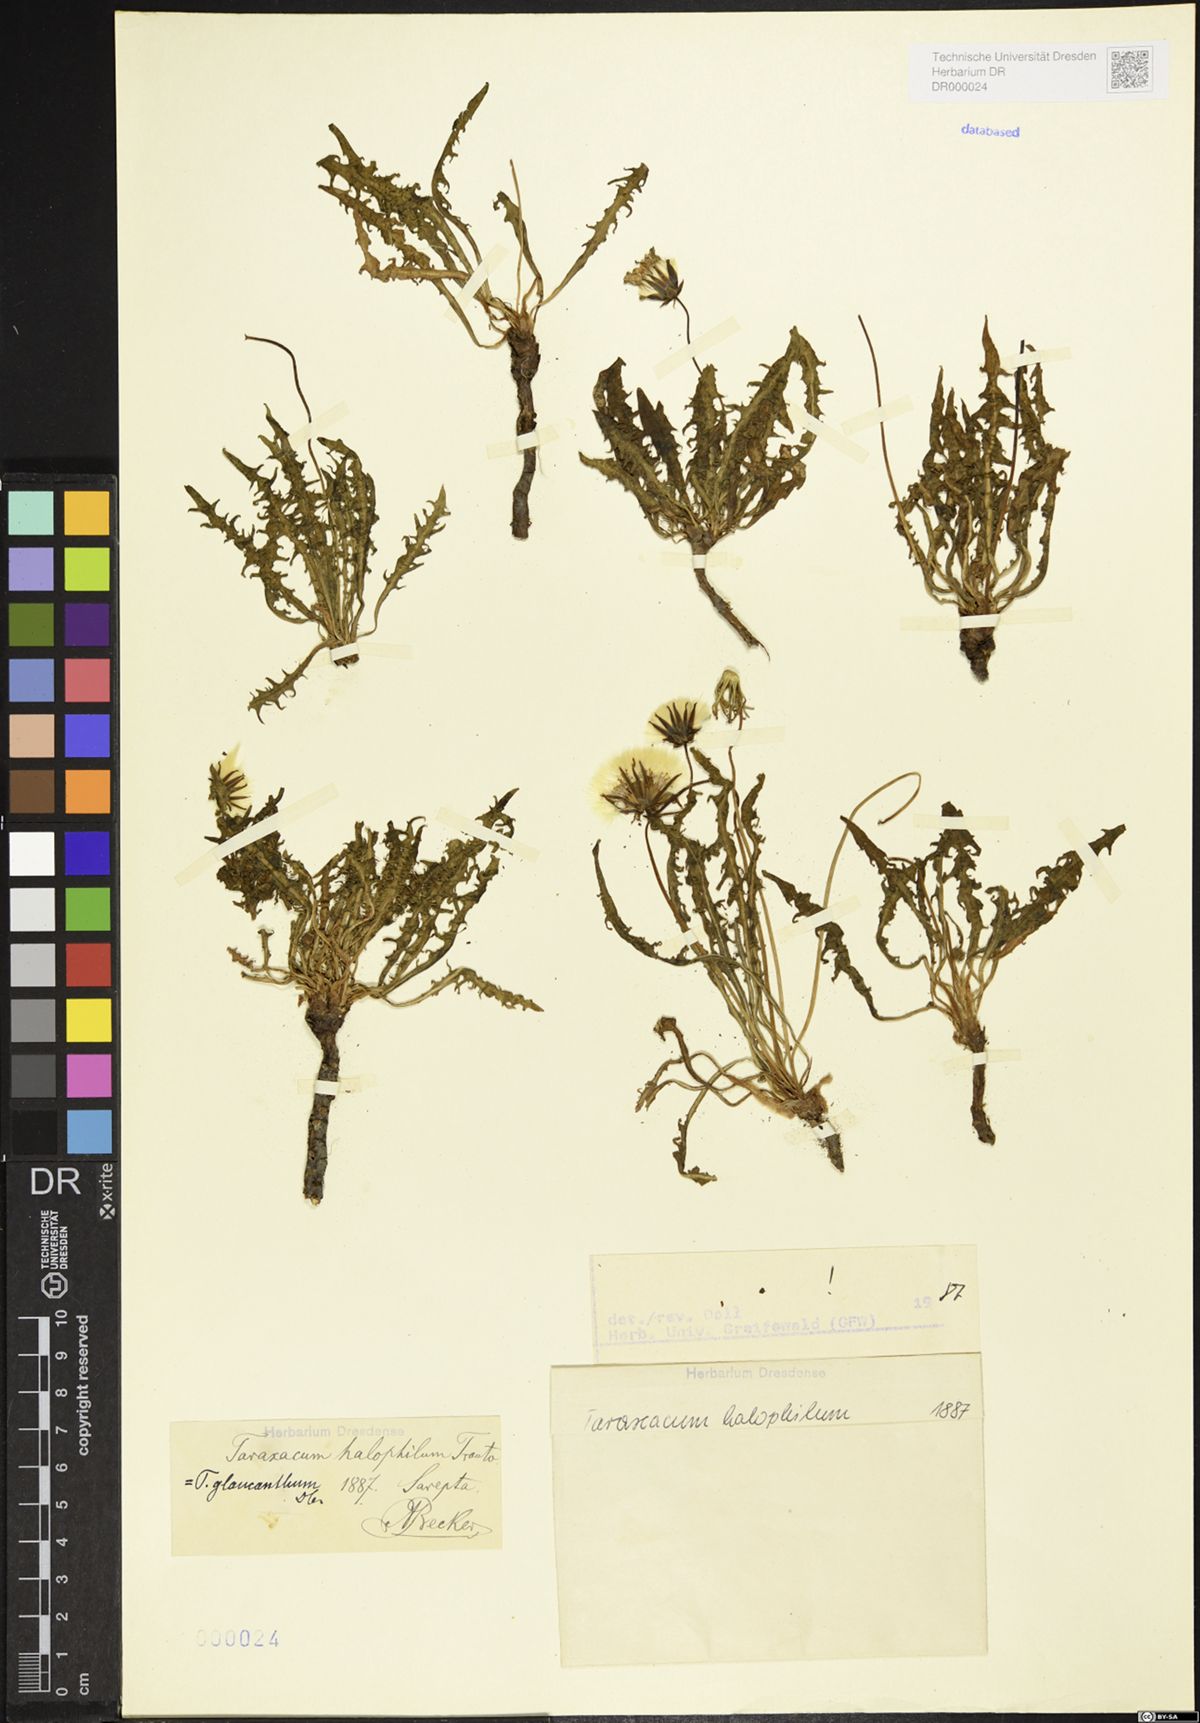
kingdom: Plantae
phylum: Tracheophyta
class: Magnoliopsida
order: Asterales
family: Asteraceae
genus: Taraxacum
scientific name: Taraxacum glaucanthum
